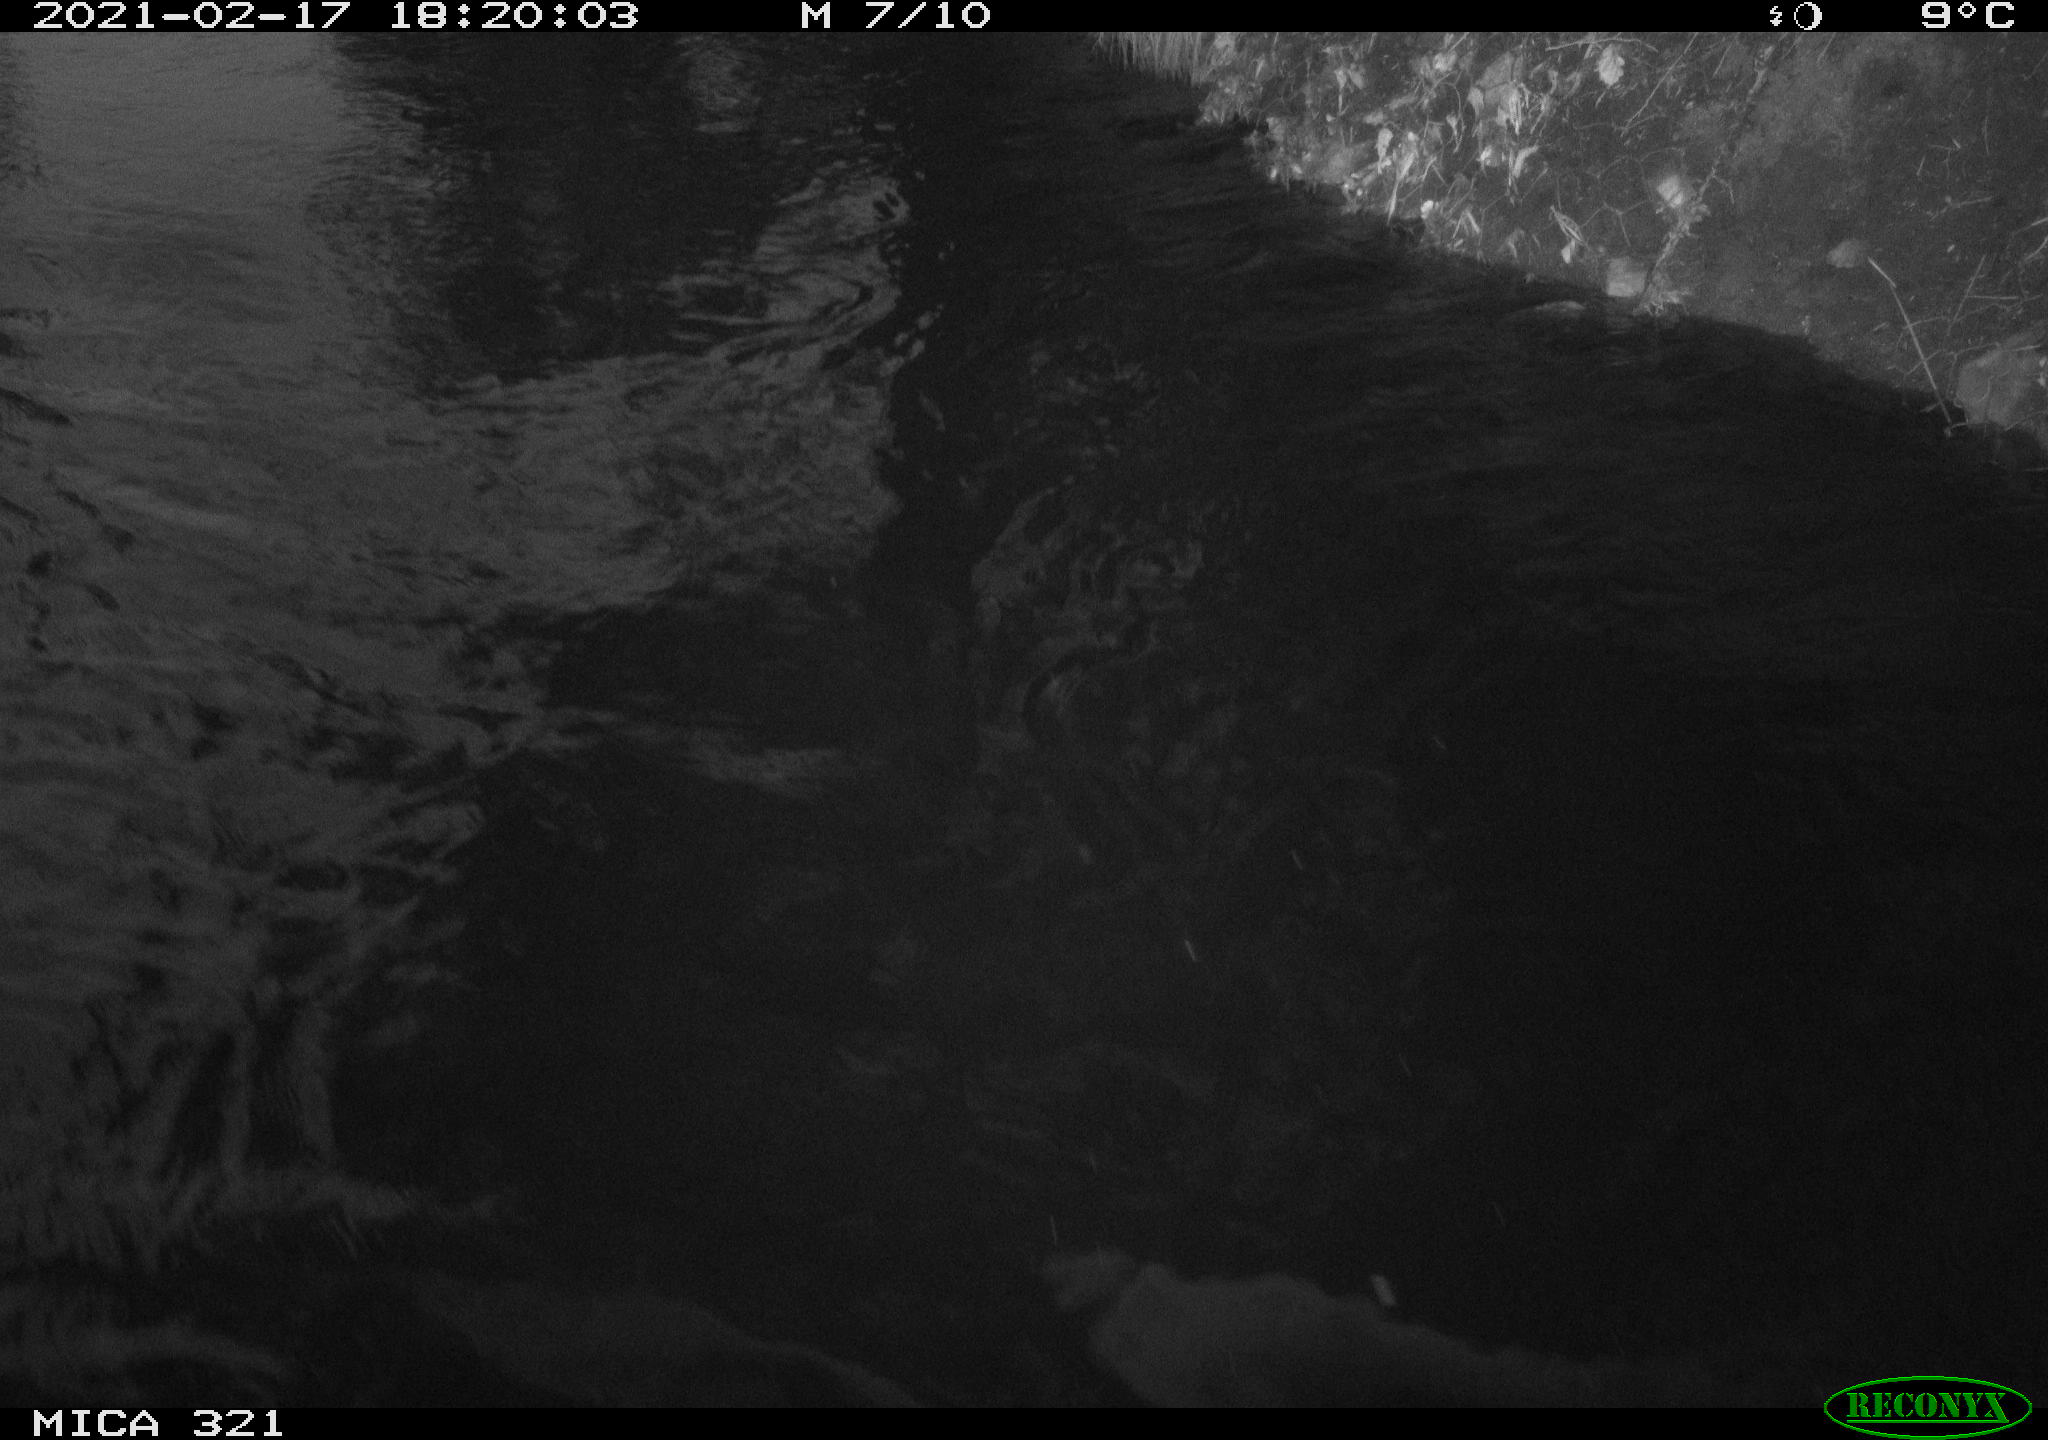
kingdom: Animalia
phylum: Chordata
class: Aves
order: Anseriformes
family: Anatidae
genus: Anas
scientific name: Anas platyrhynchos
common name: Mallard
